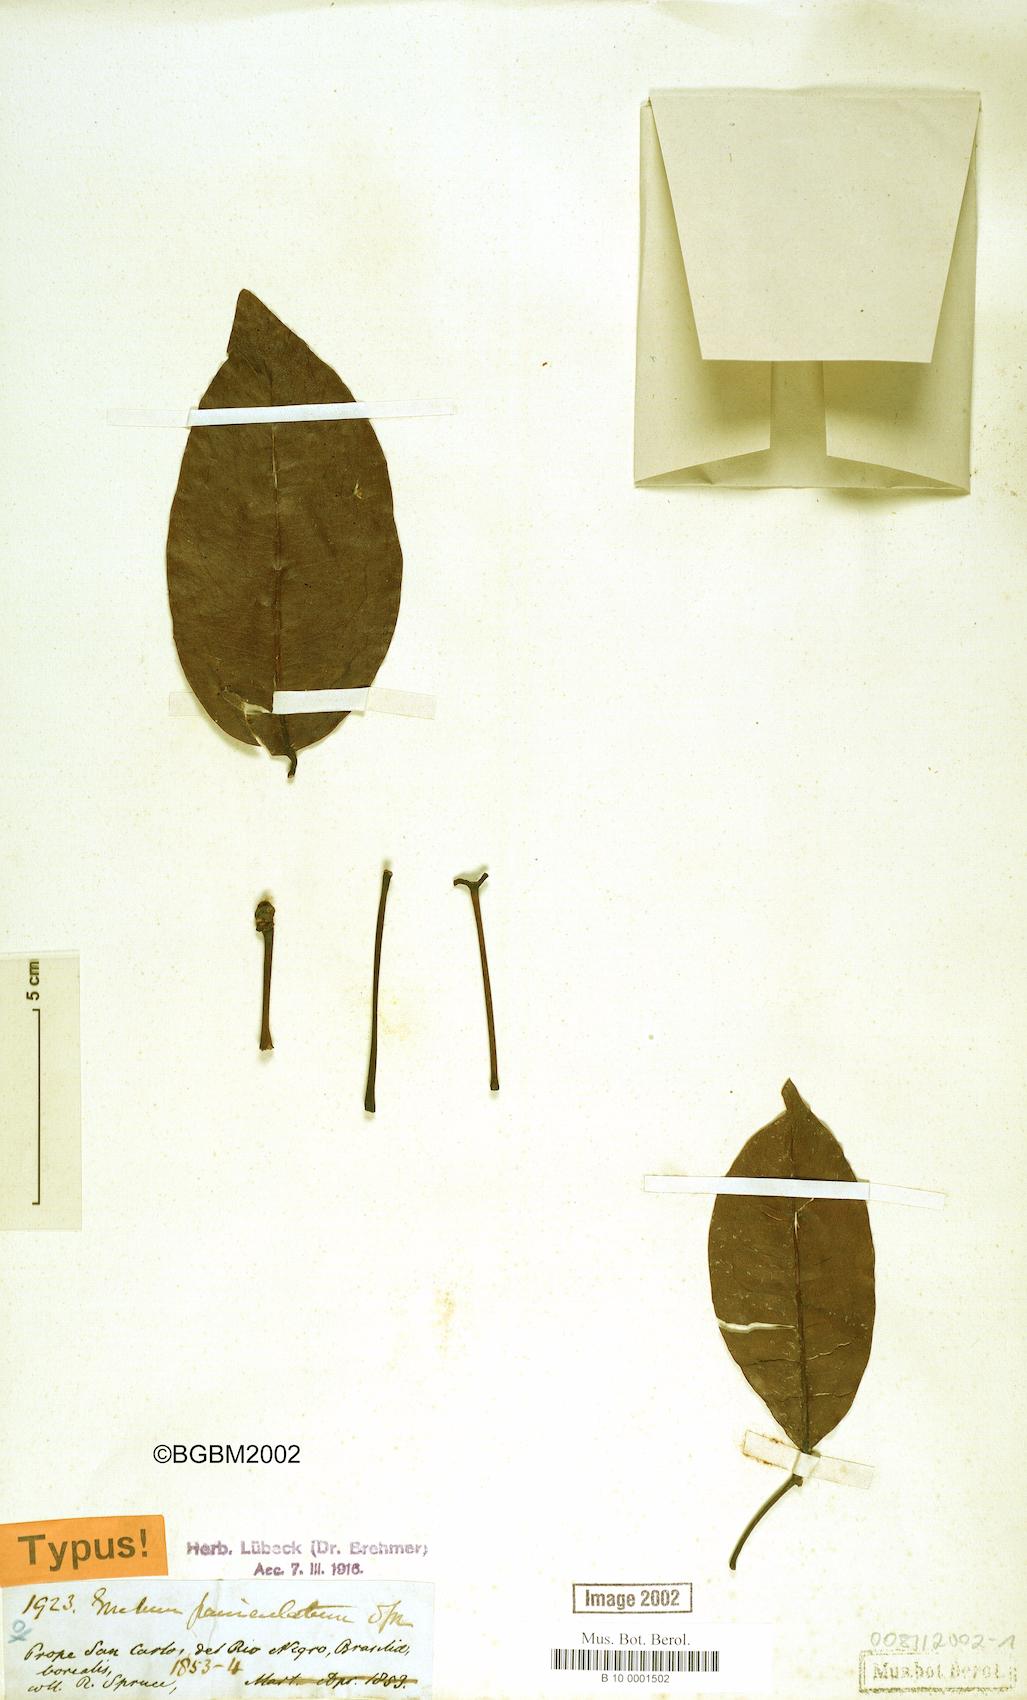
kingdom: Plantae
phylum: Tracheophyta
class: Gnetopsida
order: Gnetales
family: Gnetaceae
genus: Gnetum
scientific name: Gnetum paniculatum
